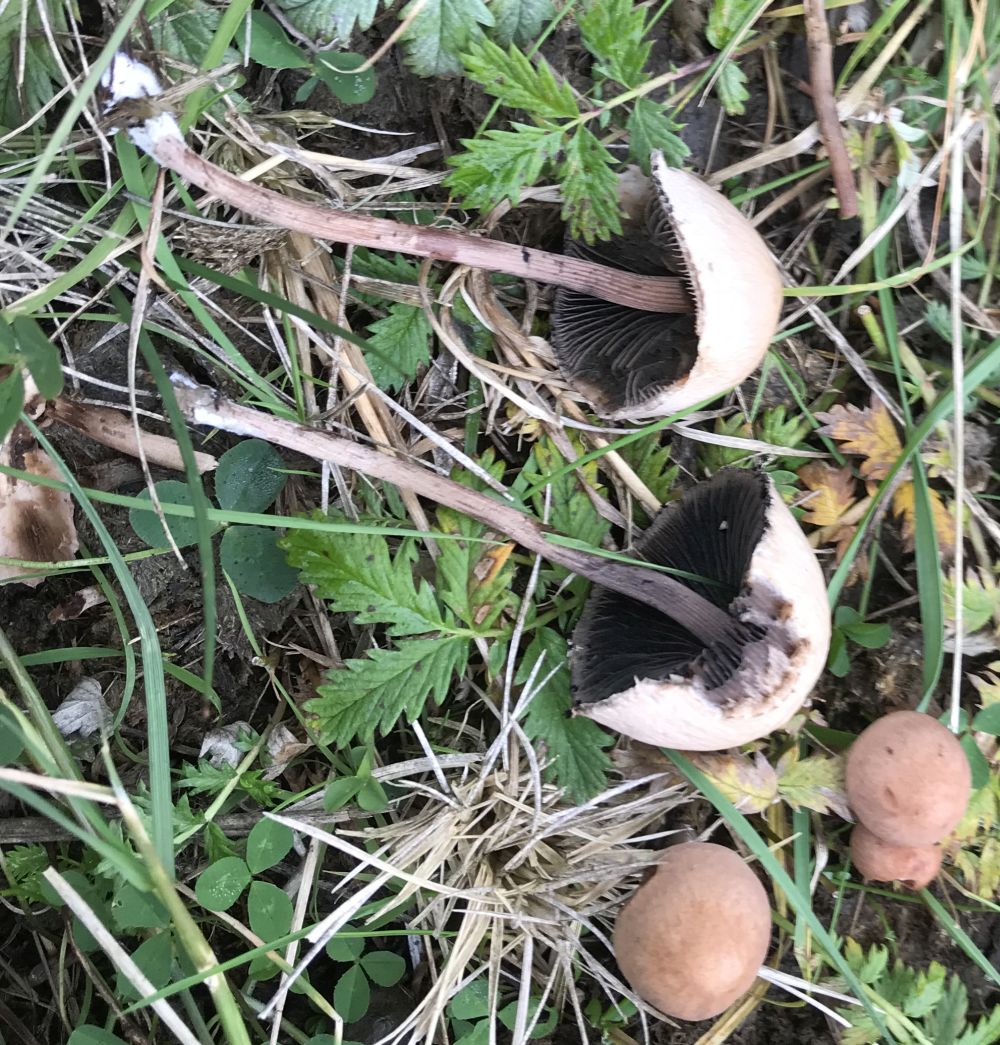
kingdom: Fungi
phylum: Basidiomycota
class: Agaricomycetes
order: Agaricales
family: Bolbitiaceae
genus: Panaeolus
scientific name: Panaeolus papilionaceus
